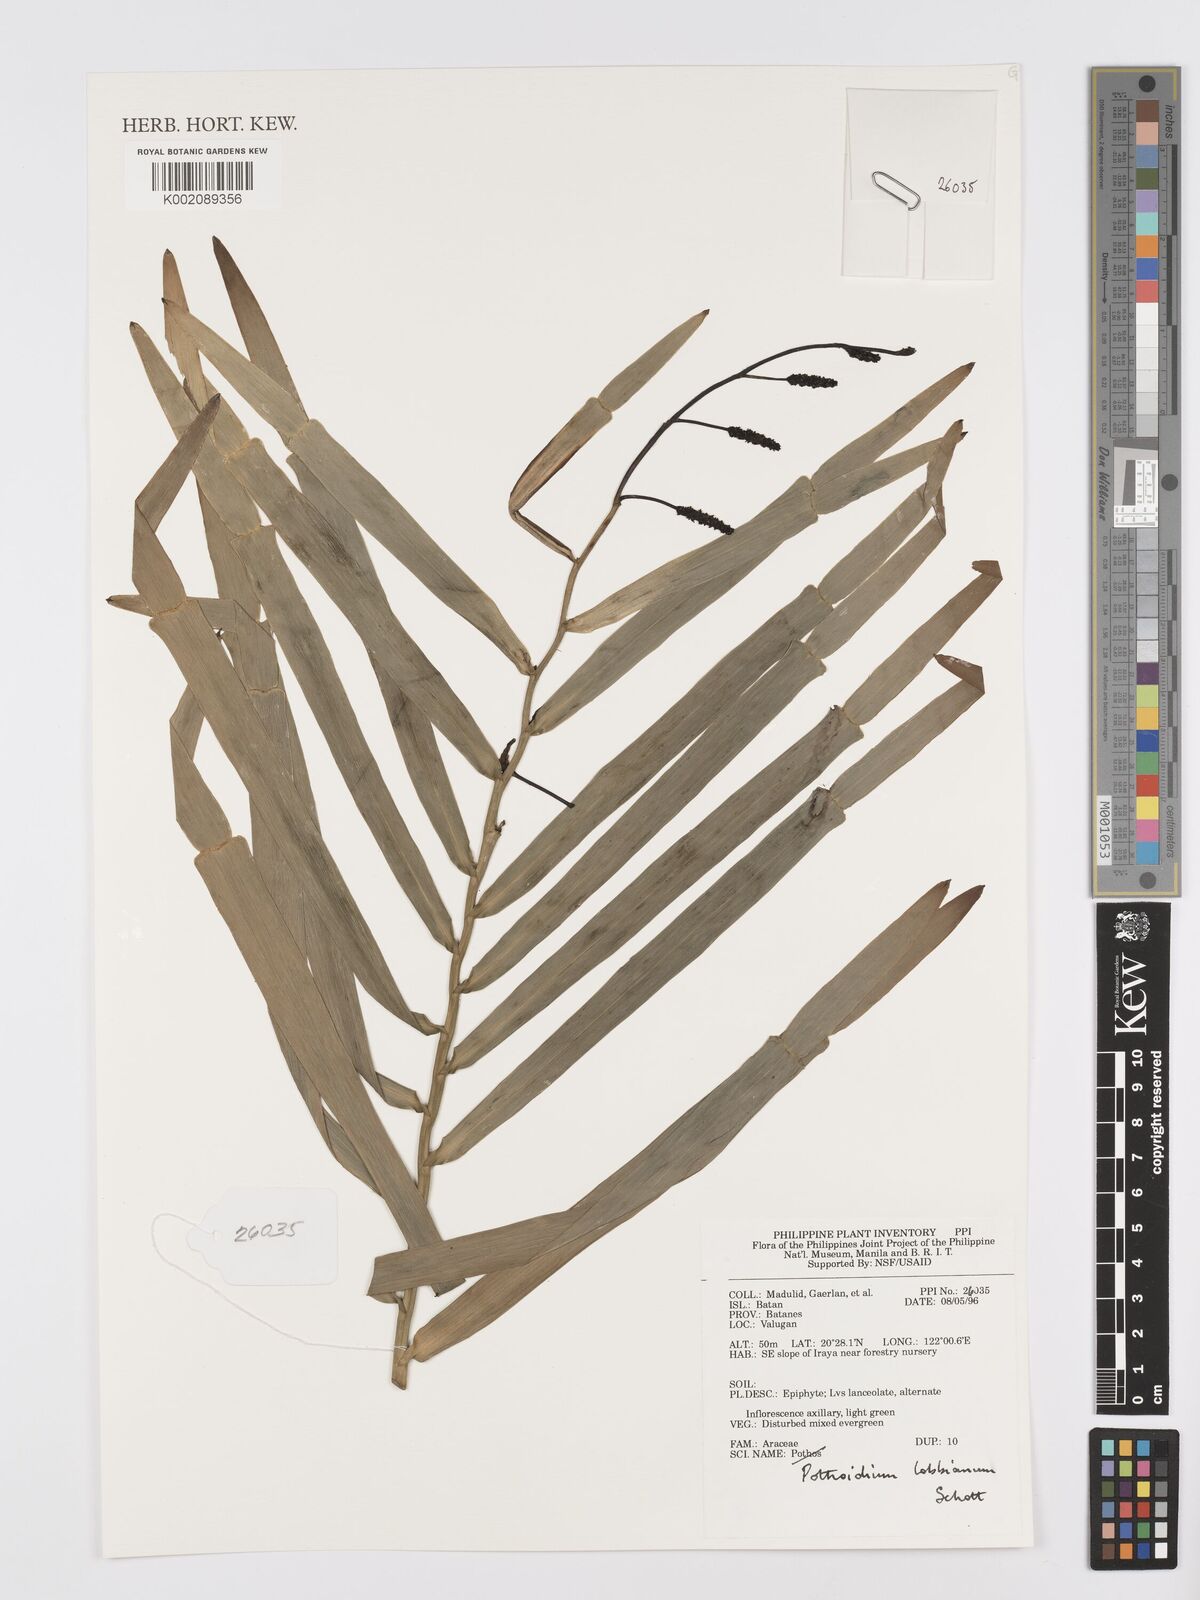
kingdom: Plantae
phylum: Tracheophyta
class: Liliopsida
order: Alismatales
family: Araceae
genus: Pothoidium
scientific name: Pothoidium lobbianum
